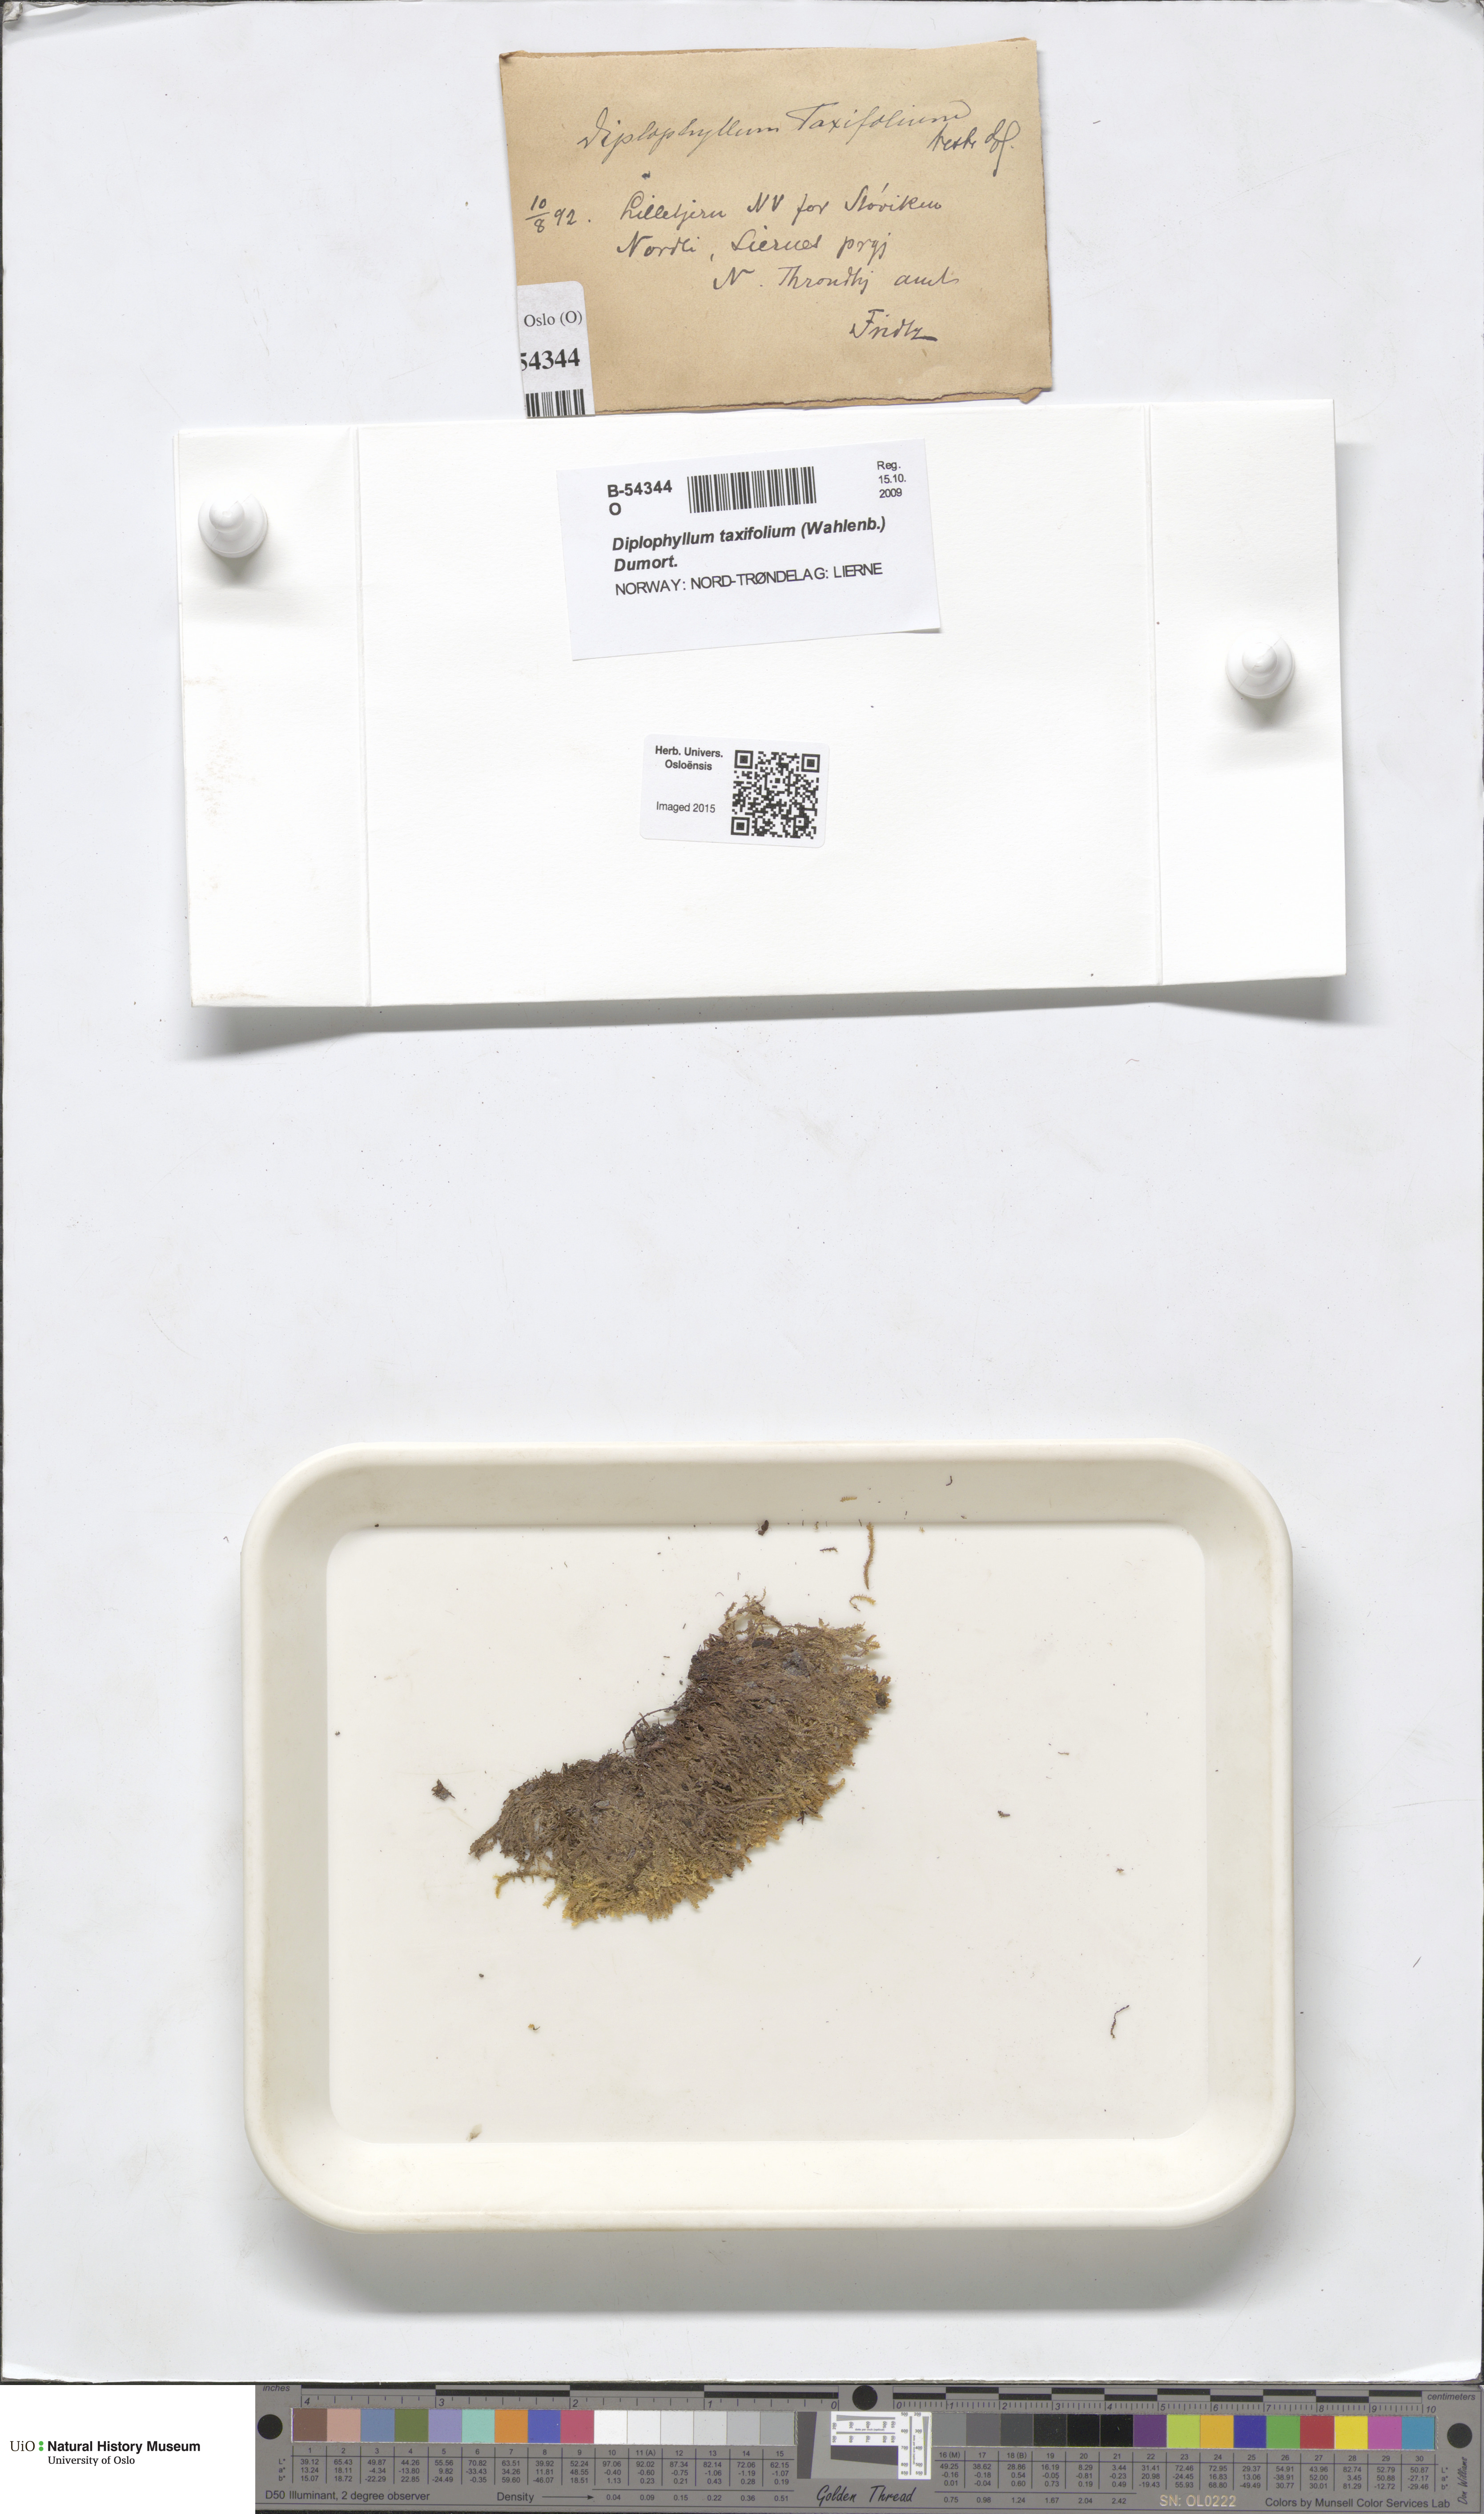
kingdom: Plantae
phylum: Marchantiophyta
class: Jungermanniopsida
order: Jungermanniales
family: Scapaniaceae
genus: Diplophyllum
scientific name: Diplophyllum taxifolium
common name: Alpine earwort
